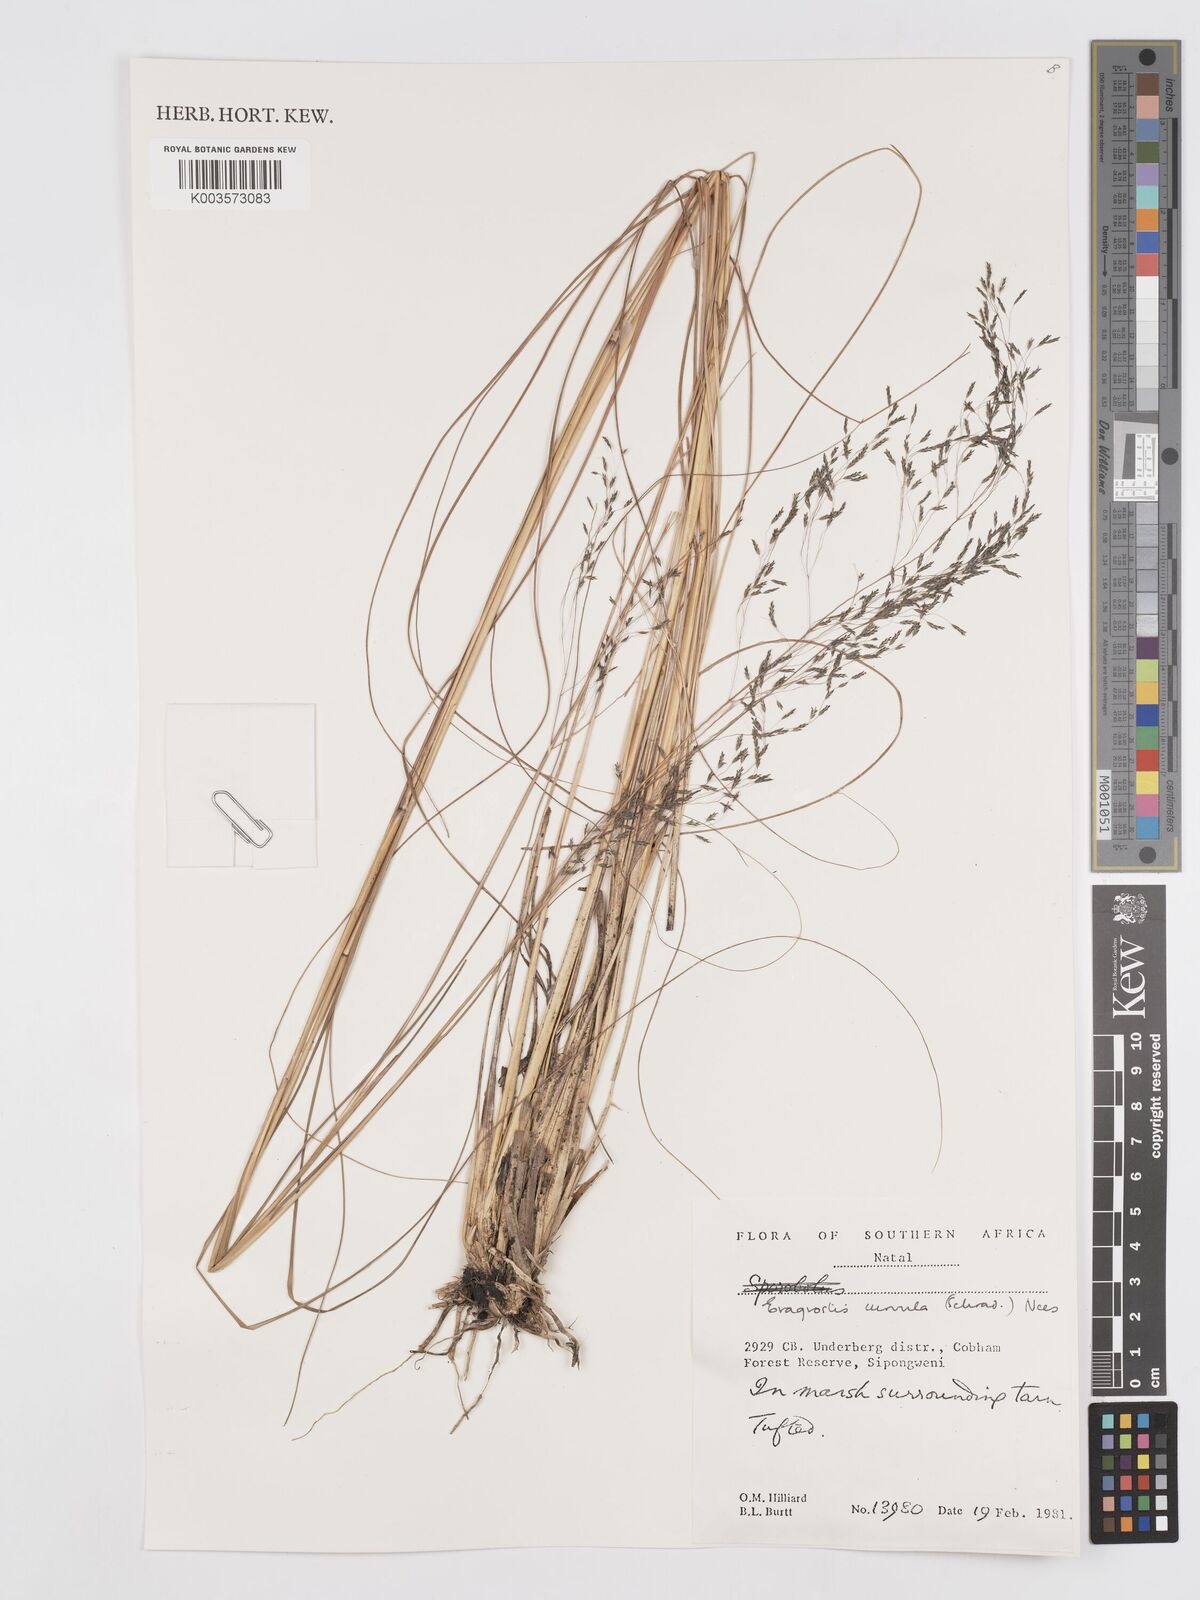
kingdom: Plantae
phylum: Tracheophyta
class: Liliopsida
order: Poales
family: Poaceae
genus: Eragrostis
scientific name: Eragrostis curvula
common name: African love-grass
